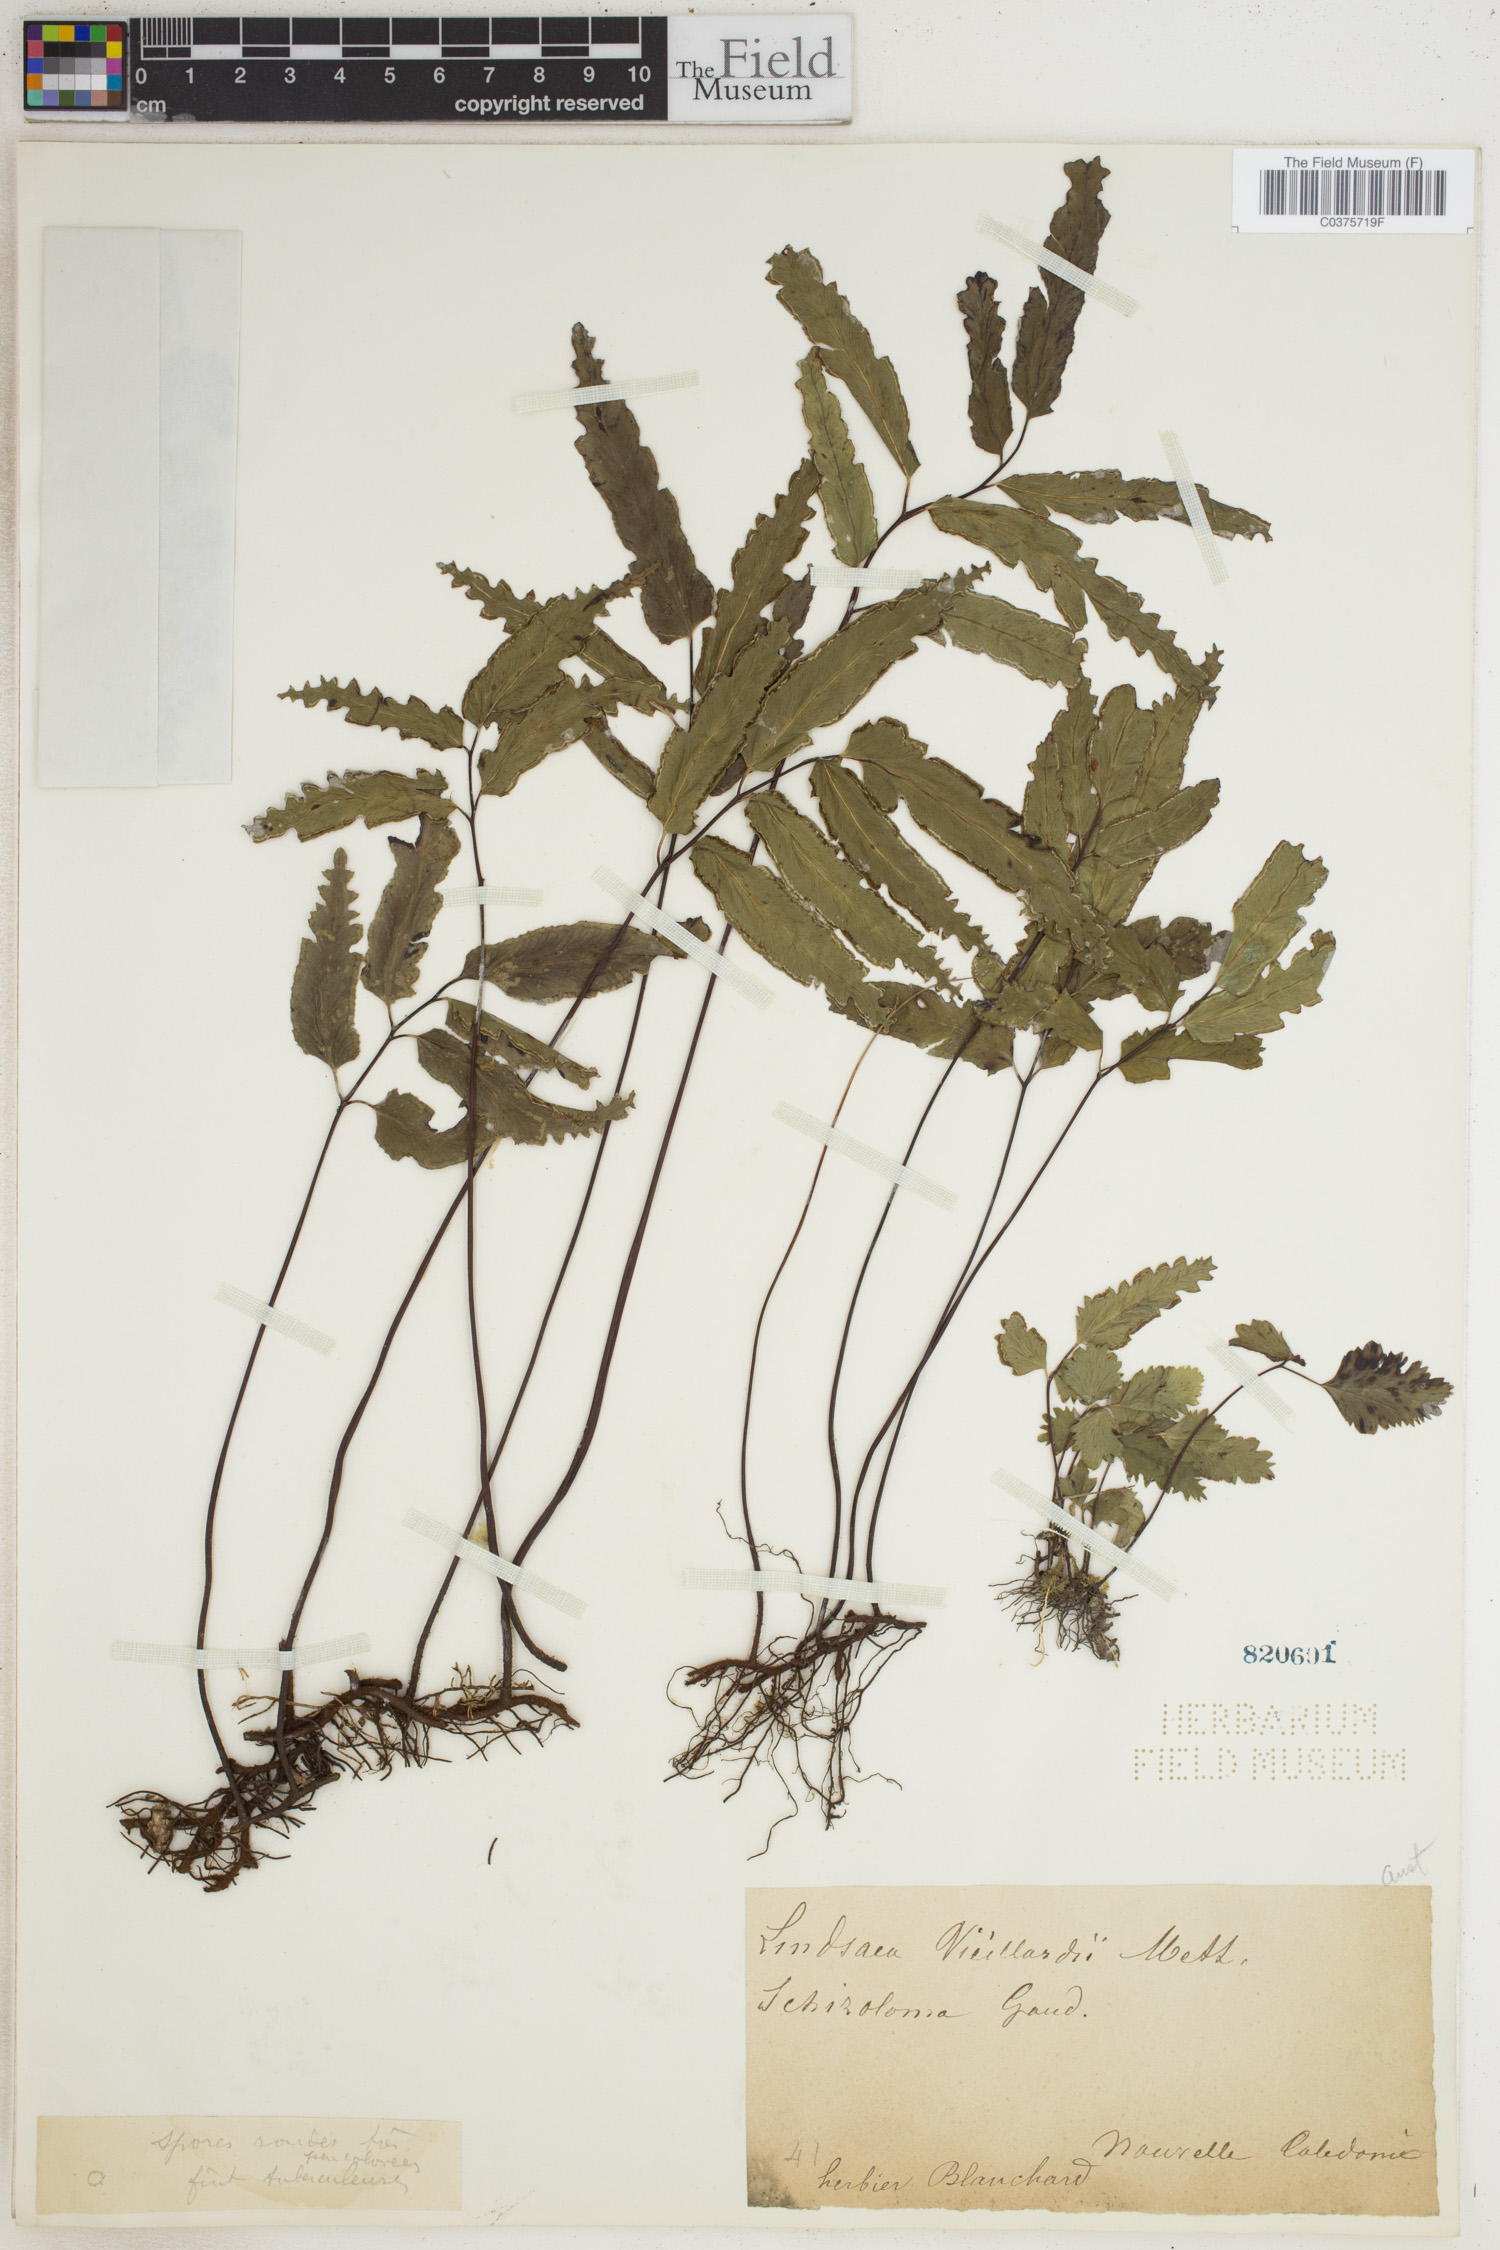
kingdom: Plantae
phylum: Tracheophyta
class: Polypodiopsida
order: Polypodiales
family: Lindsaeaceae
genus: Lindsaea
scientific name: Lindsaea
